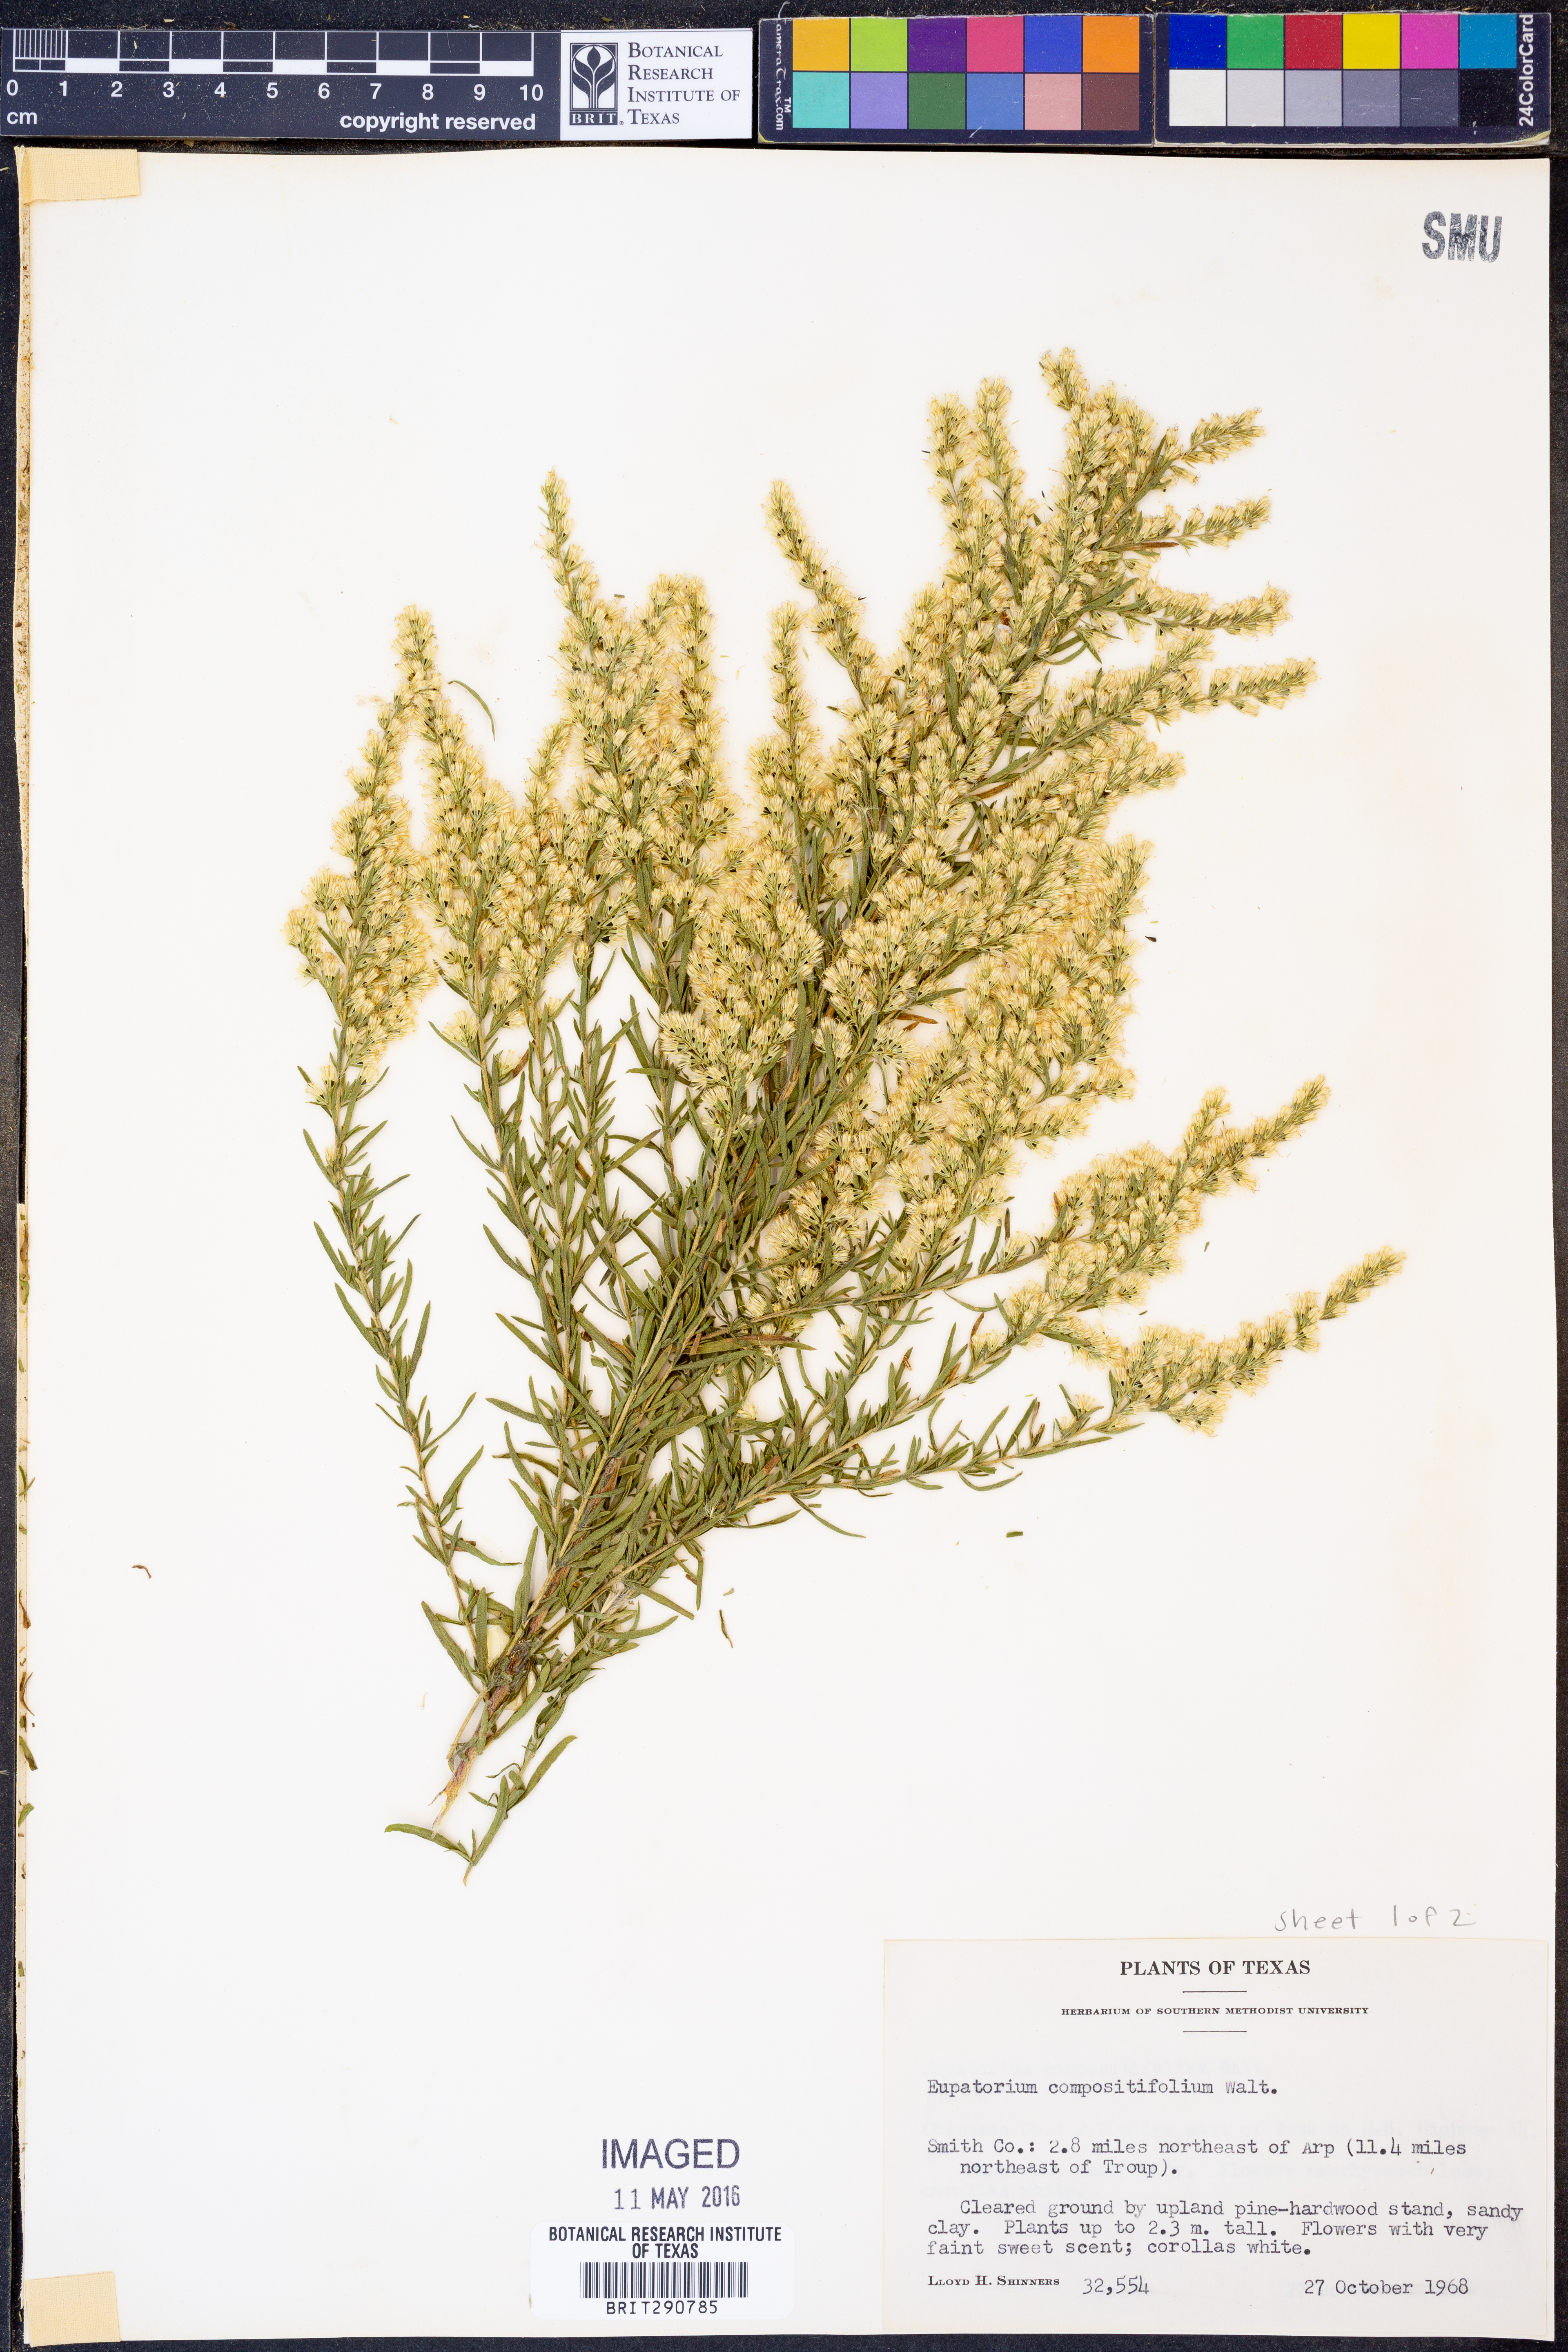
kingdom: Plantae
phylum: Tracheophyta
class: Magnoliopsida
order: Asterales
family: Asteraceae
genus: Eupatorium
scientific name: Eupatorium compositifolium
